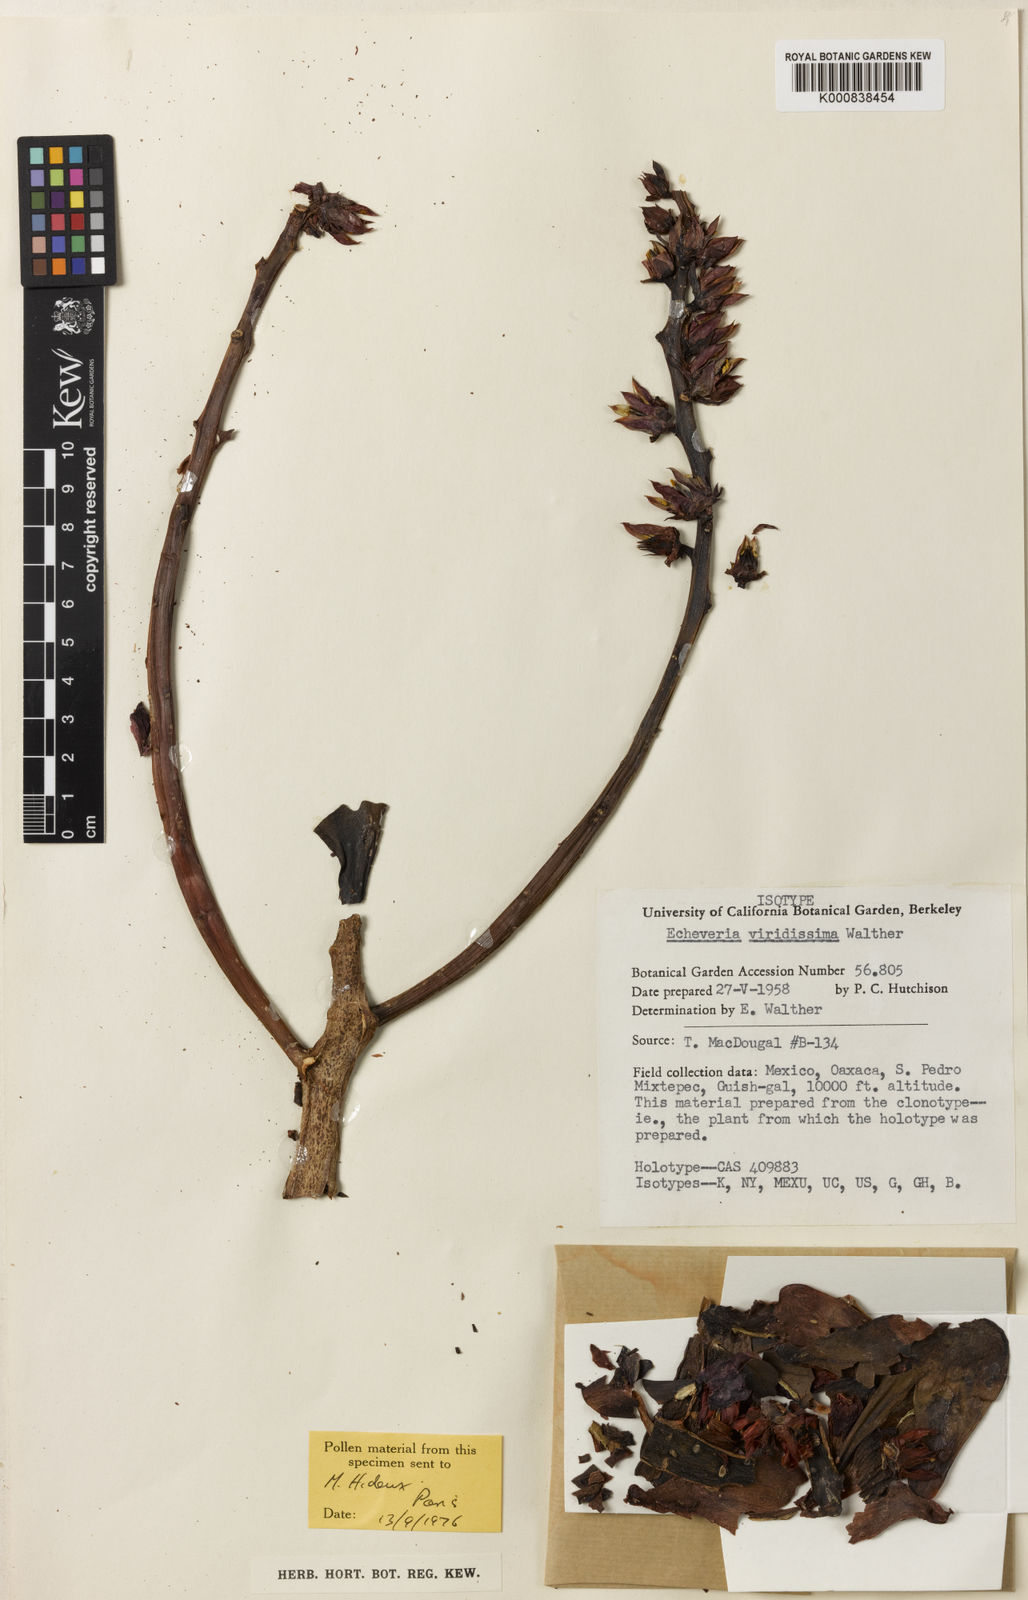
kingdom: Plantae
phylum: Tracheophyta
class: Magnoliopsida
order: Saxifragales
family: Crassulaceae
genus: Echeveria
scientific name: Echeveria viridissima
